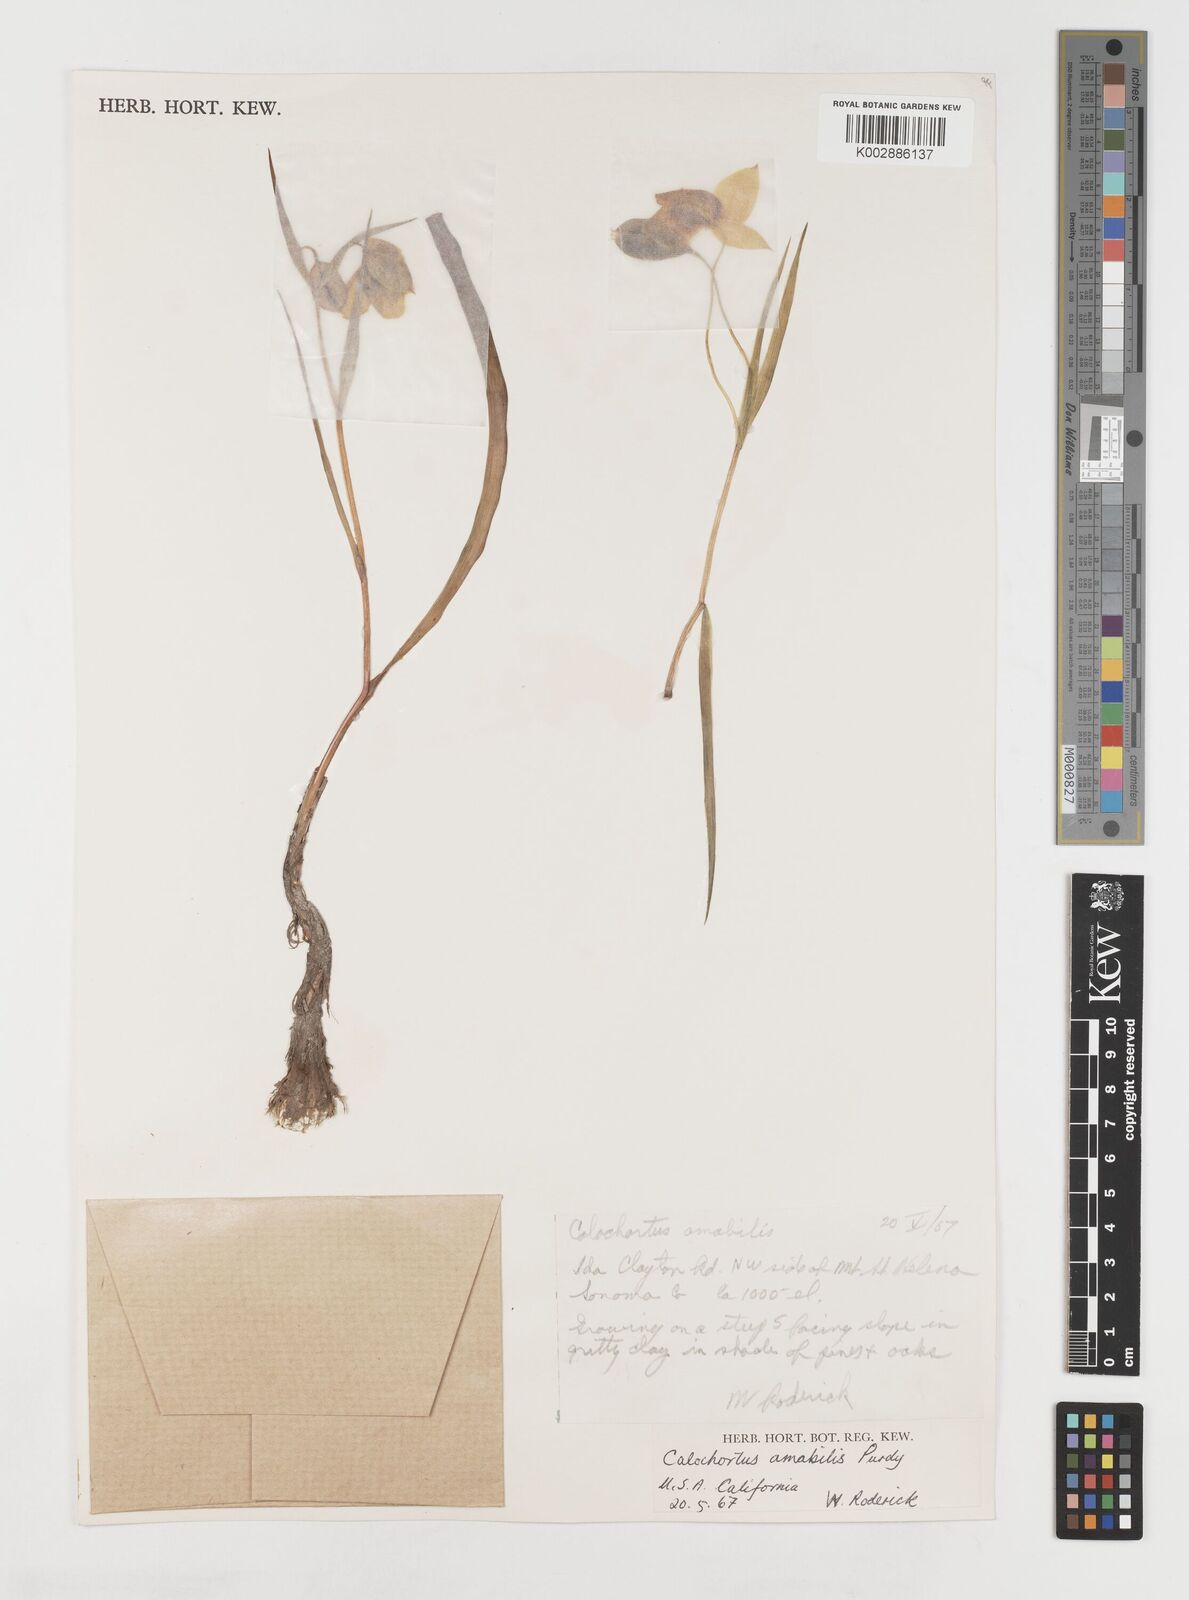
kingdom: Plantae
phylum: Tracheophyta
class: Liliopsida
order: Liliales
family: Liliaceae
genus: Calochortus
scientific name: Calochortus amabilis
